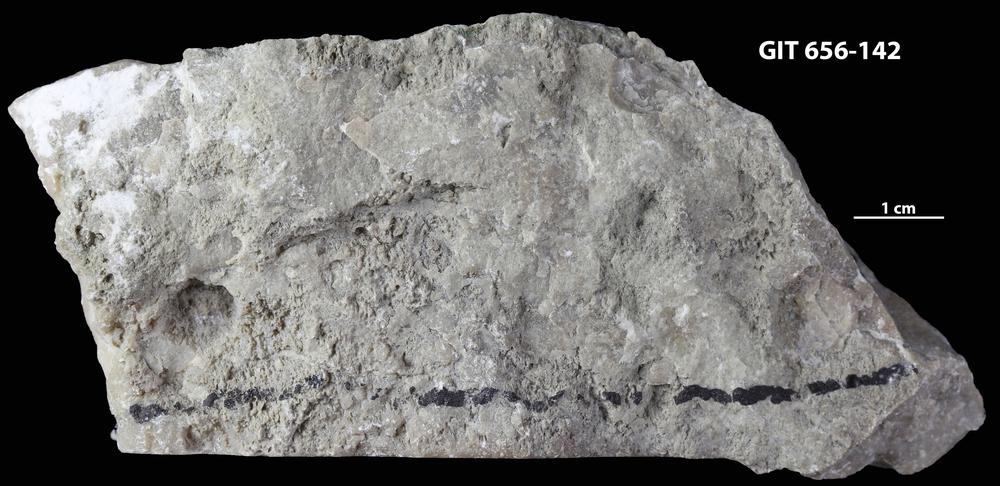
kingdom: Animalia
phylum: Porifera
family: Ecclimadictyidae
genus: Plexodictyon
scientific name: Plexodictyon
